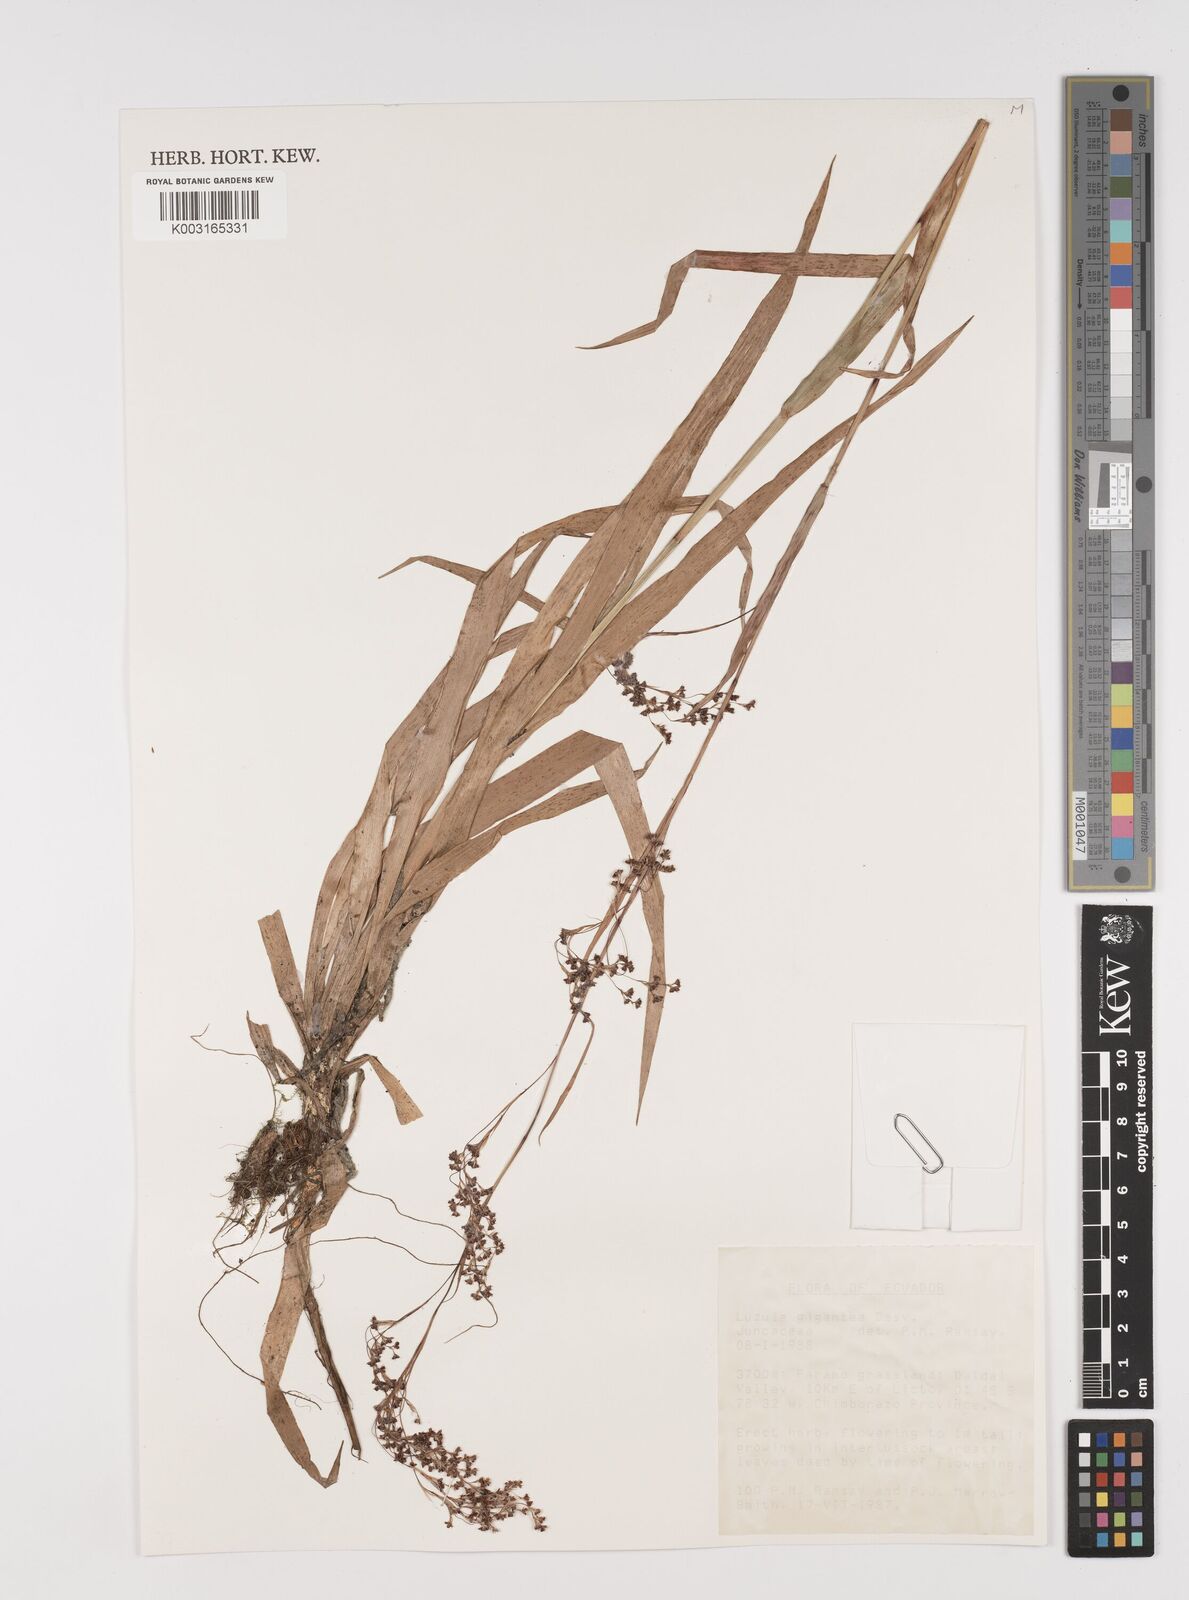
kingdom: Plantae
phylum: Tracheophyta
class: Liliopsida
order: Poales
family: Juncaceae
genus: Luzula
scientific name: Luzula gigantea
